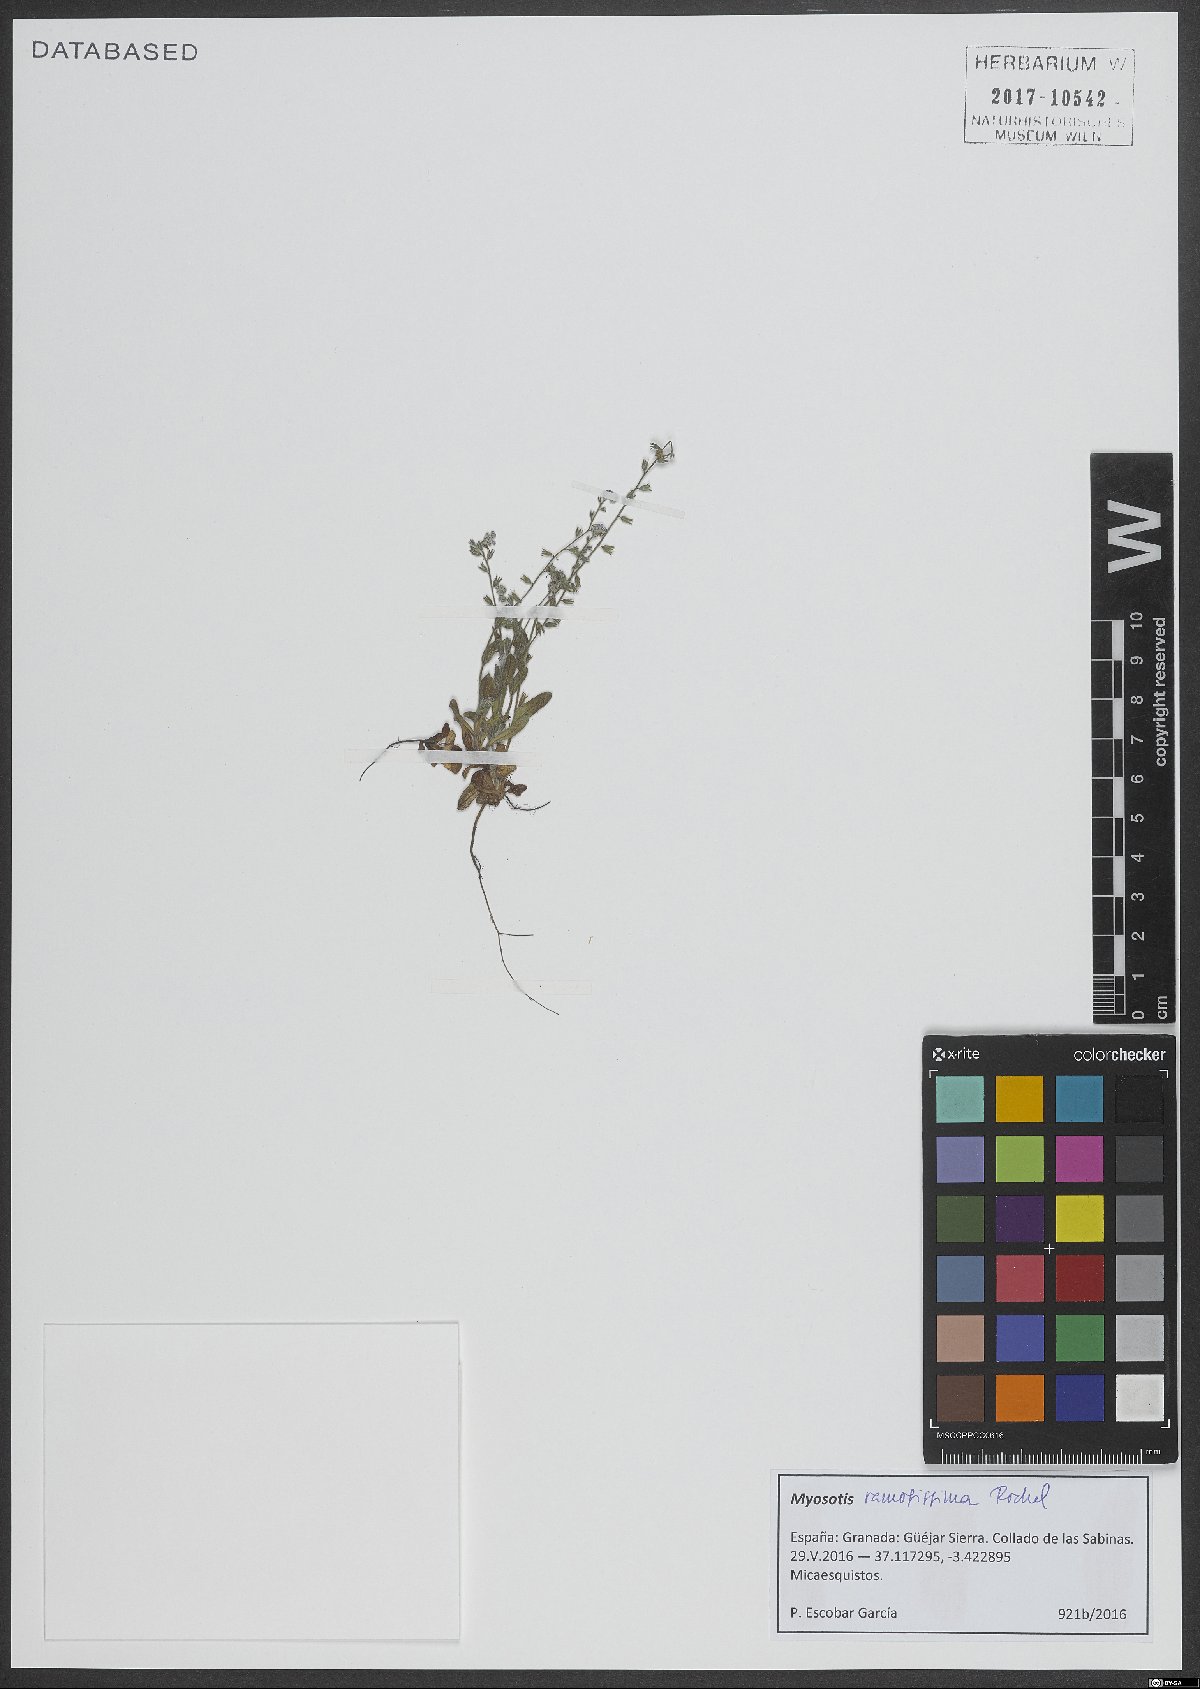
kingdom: Plantae
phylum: Tracheophyta
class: Magnoliopsida
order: Boraginales
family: Boraginaceae
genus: Myosotis
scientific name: Myosotis ramosissima
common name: Early forget-me-not
